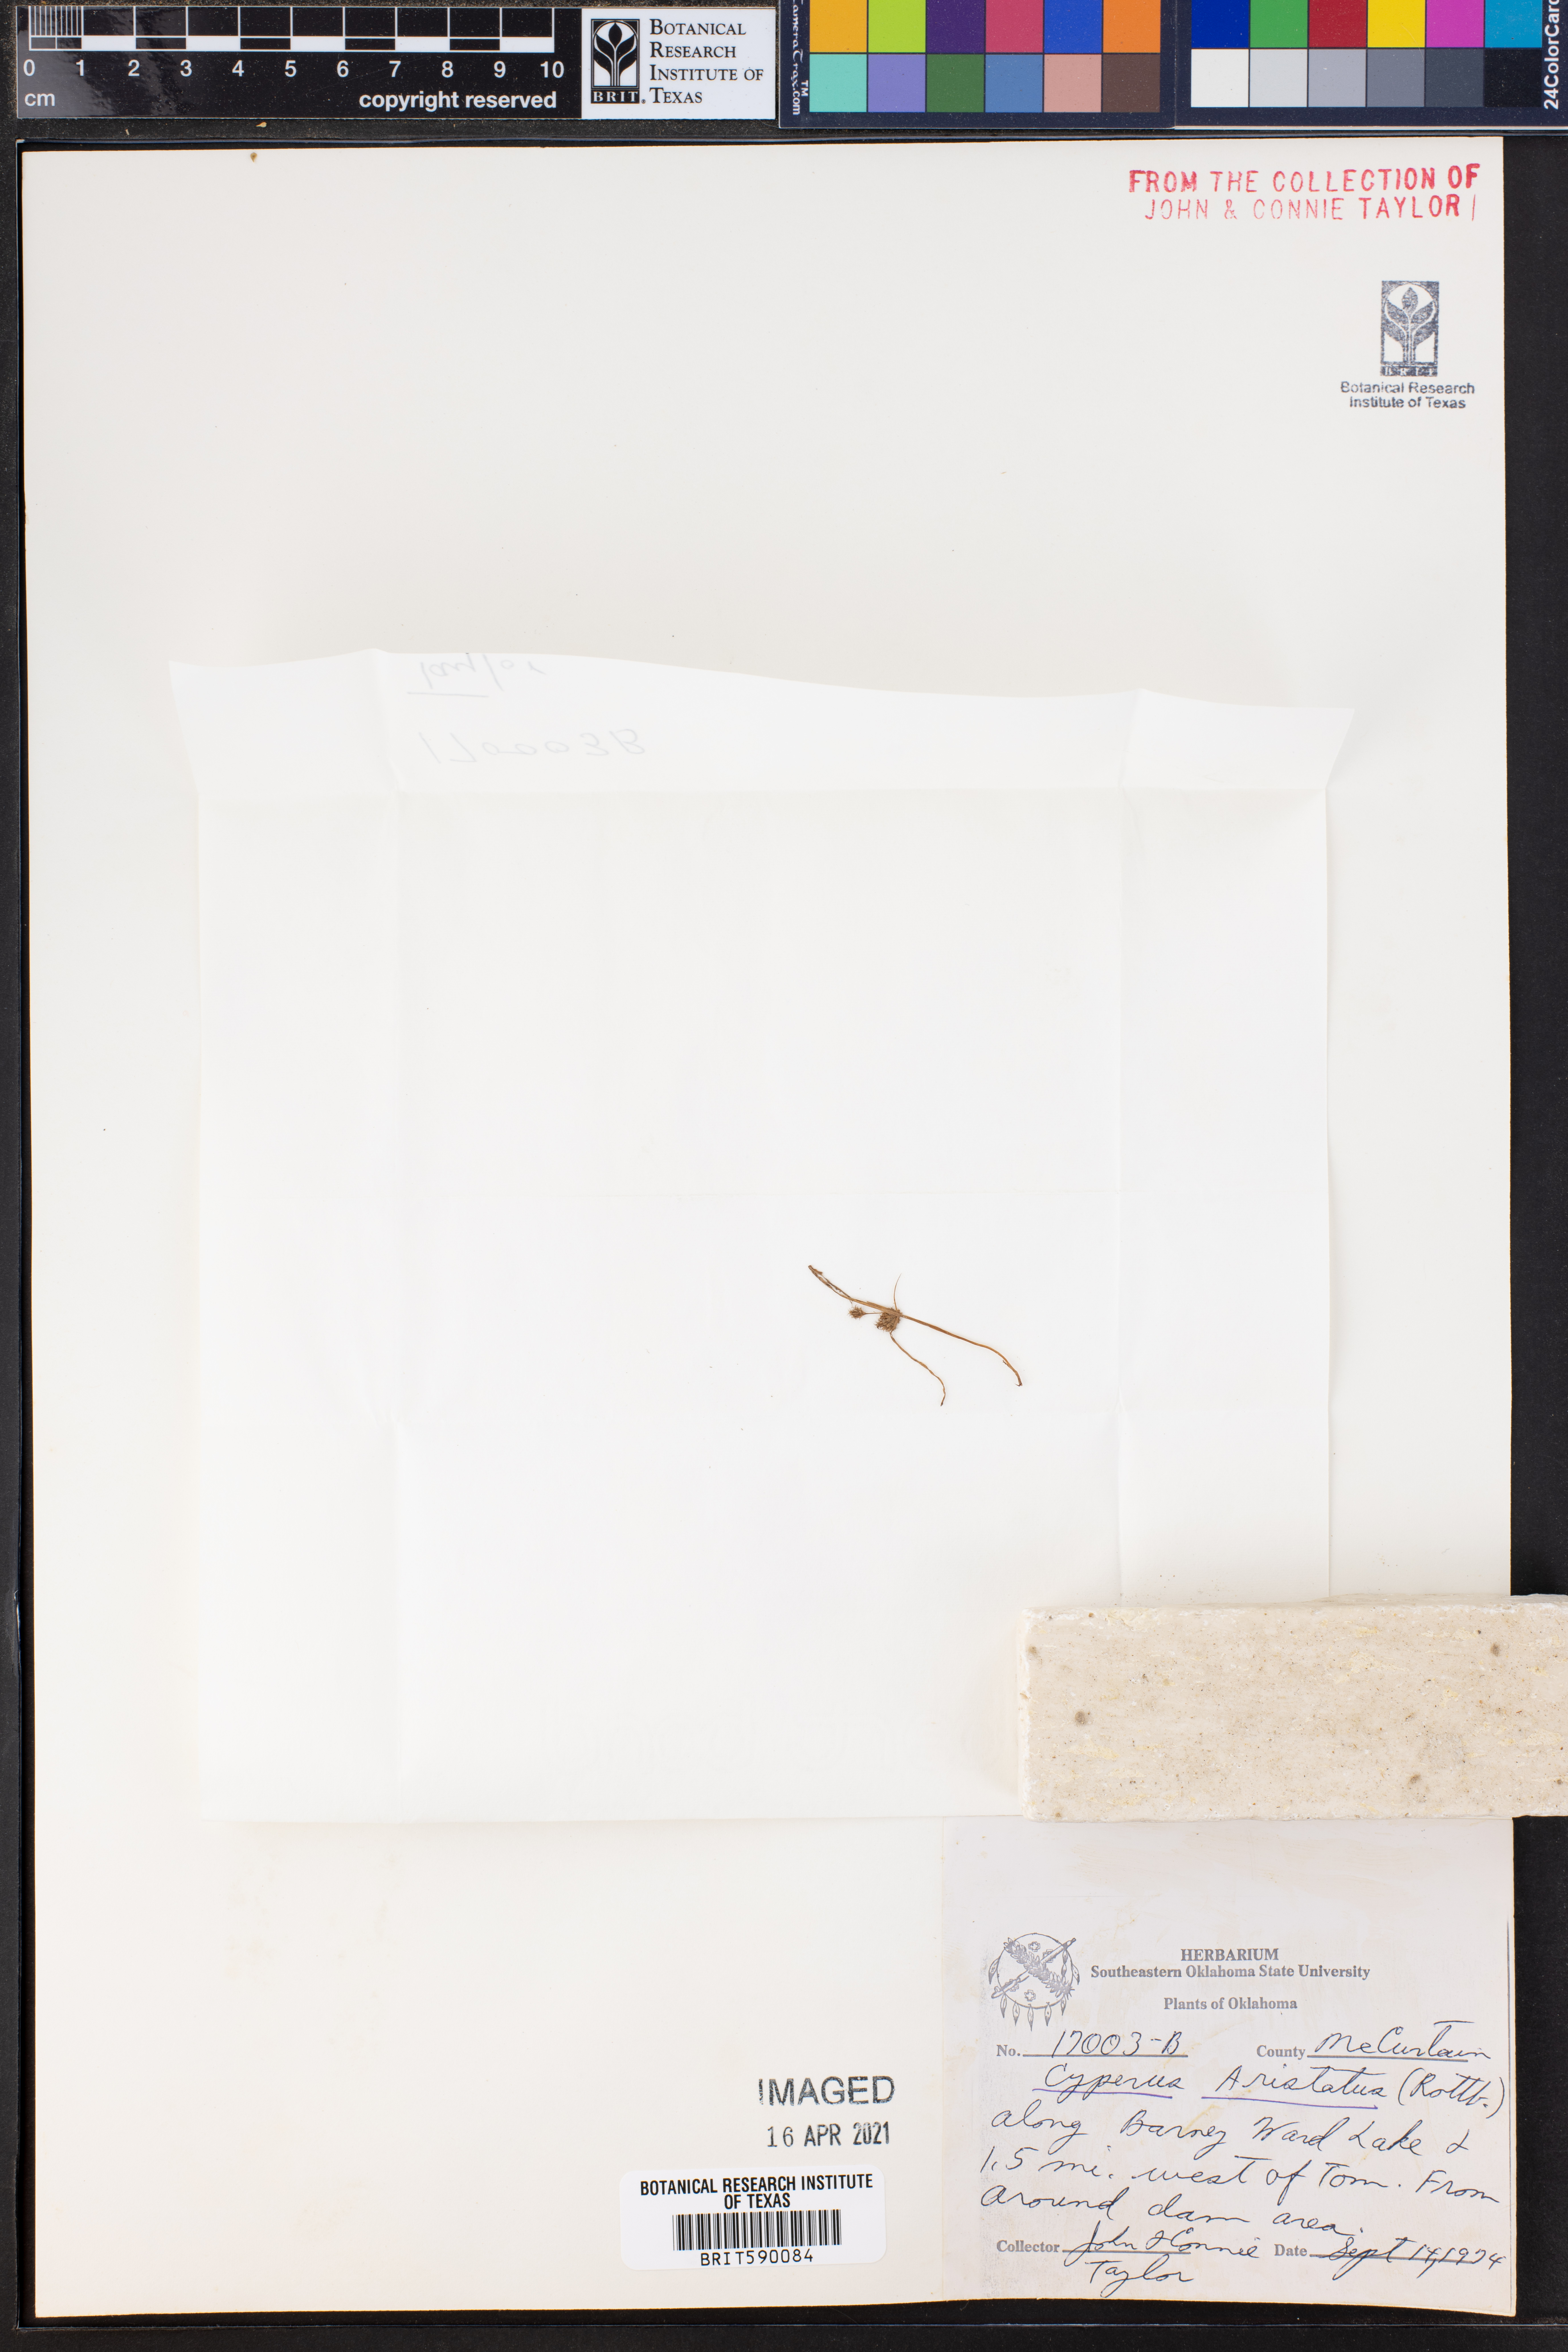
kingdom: Plantae
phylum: Tracheophyta
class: Liliopsida
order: Poales
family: Cyperaceae
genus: Cyperus
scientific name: Cyperus squarrosus
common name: Awned cyperus
